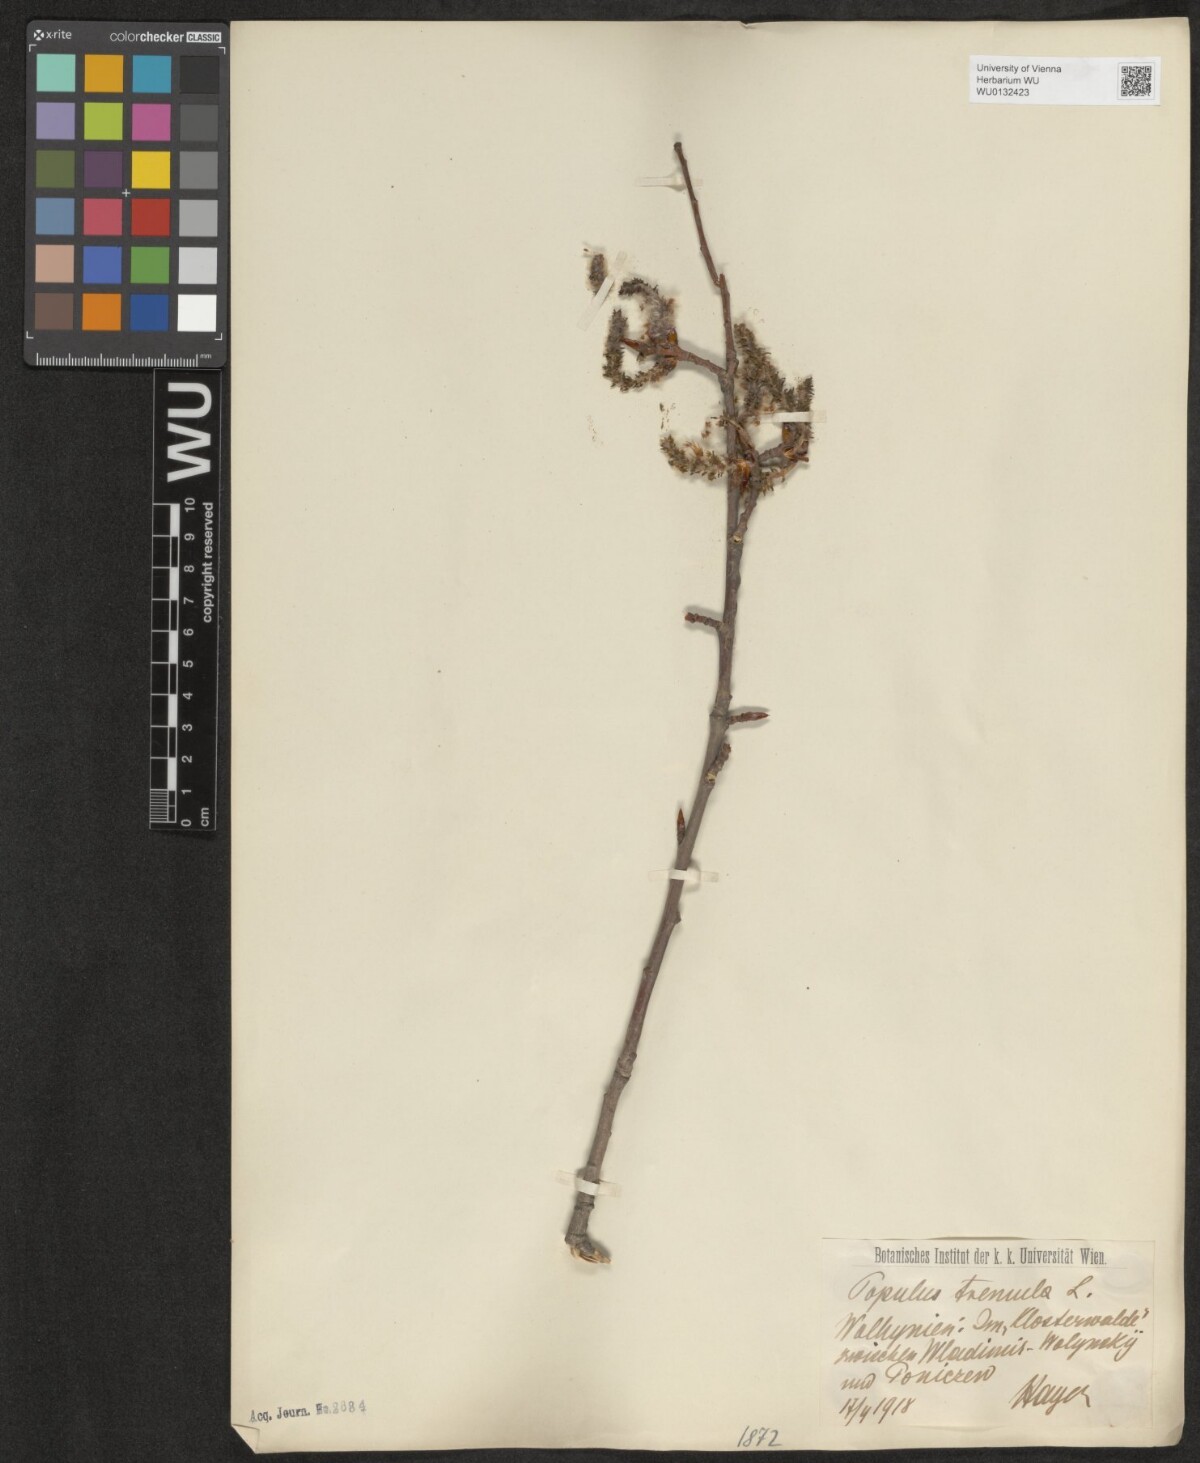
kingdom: Plantae
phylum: Tracheophyta
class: Magnoliopsida
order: Malpighiales
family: Salicaceae
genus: Populus
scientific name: Populus tremula
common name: European aspen
